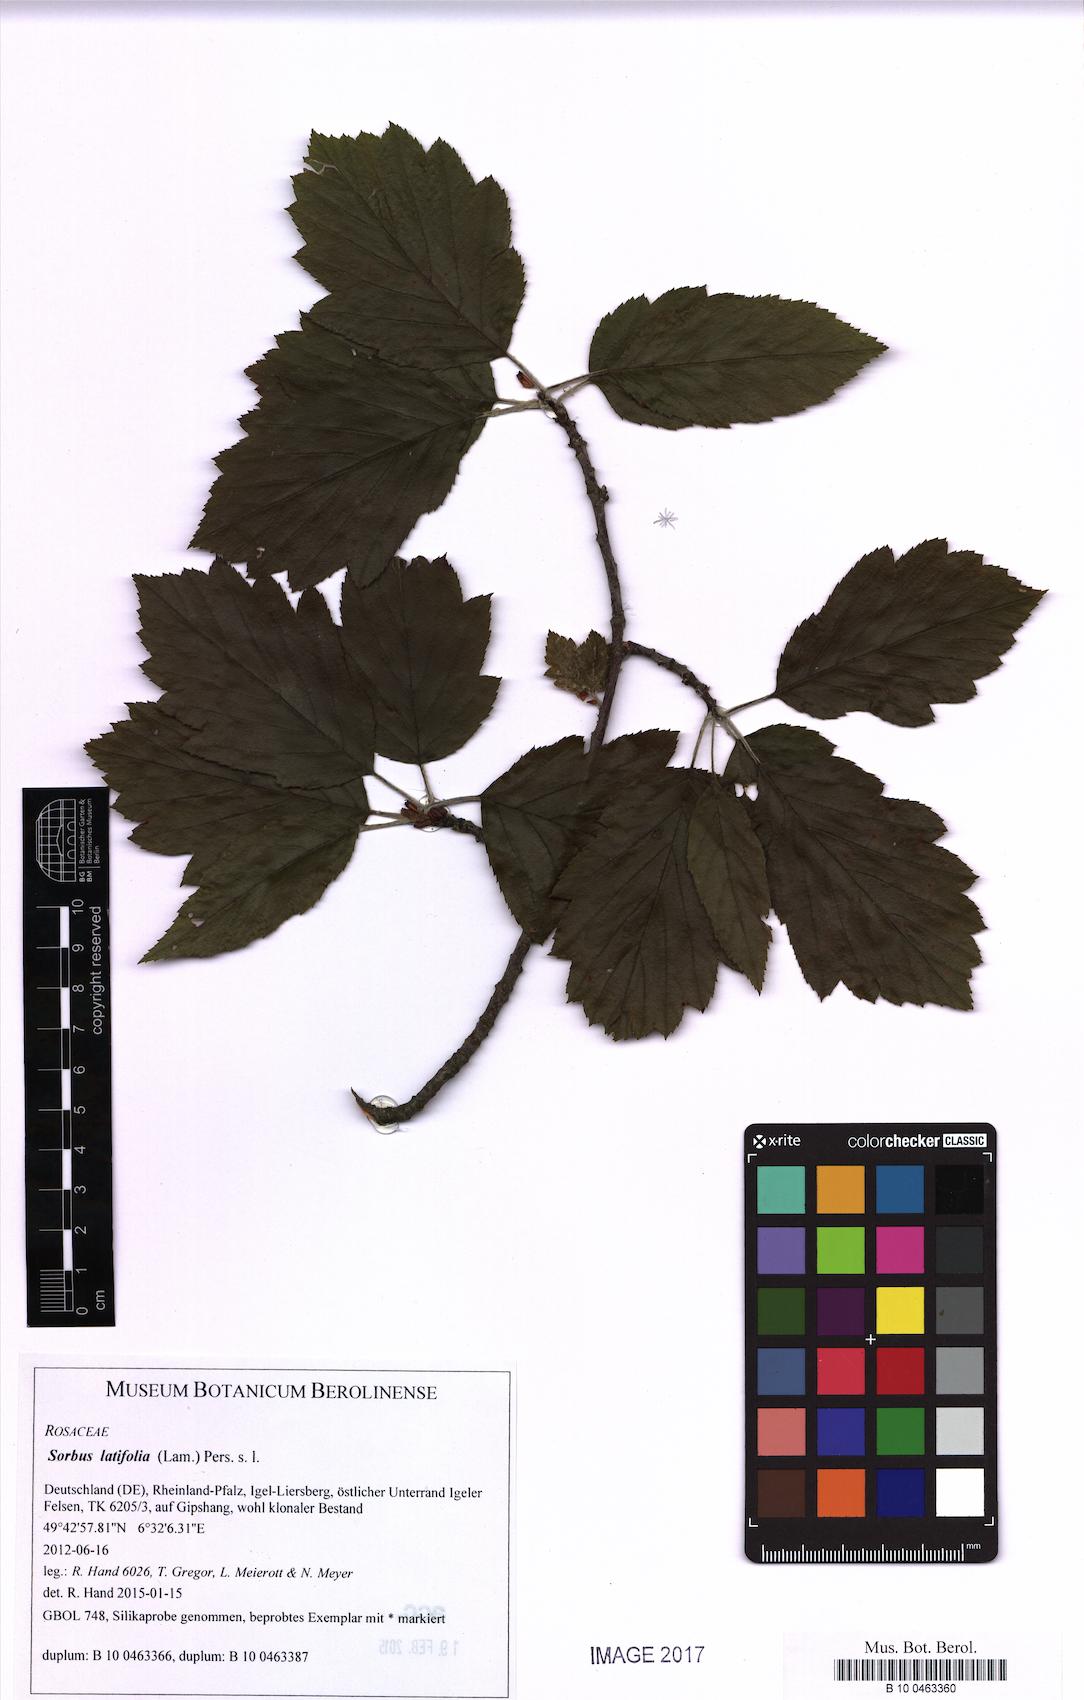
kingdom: Plantae
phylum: Tracheophyta
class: Magnoliopsida
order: Rosales
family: Rosaceae
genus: Karpatiosorbus
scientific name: Karpatiosorbus latifolia
